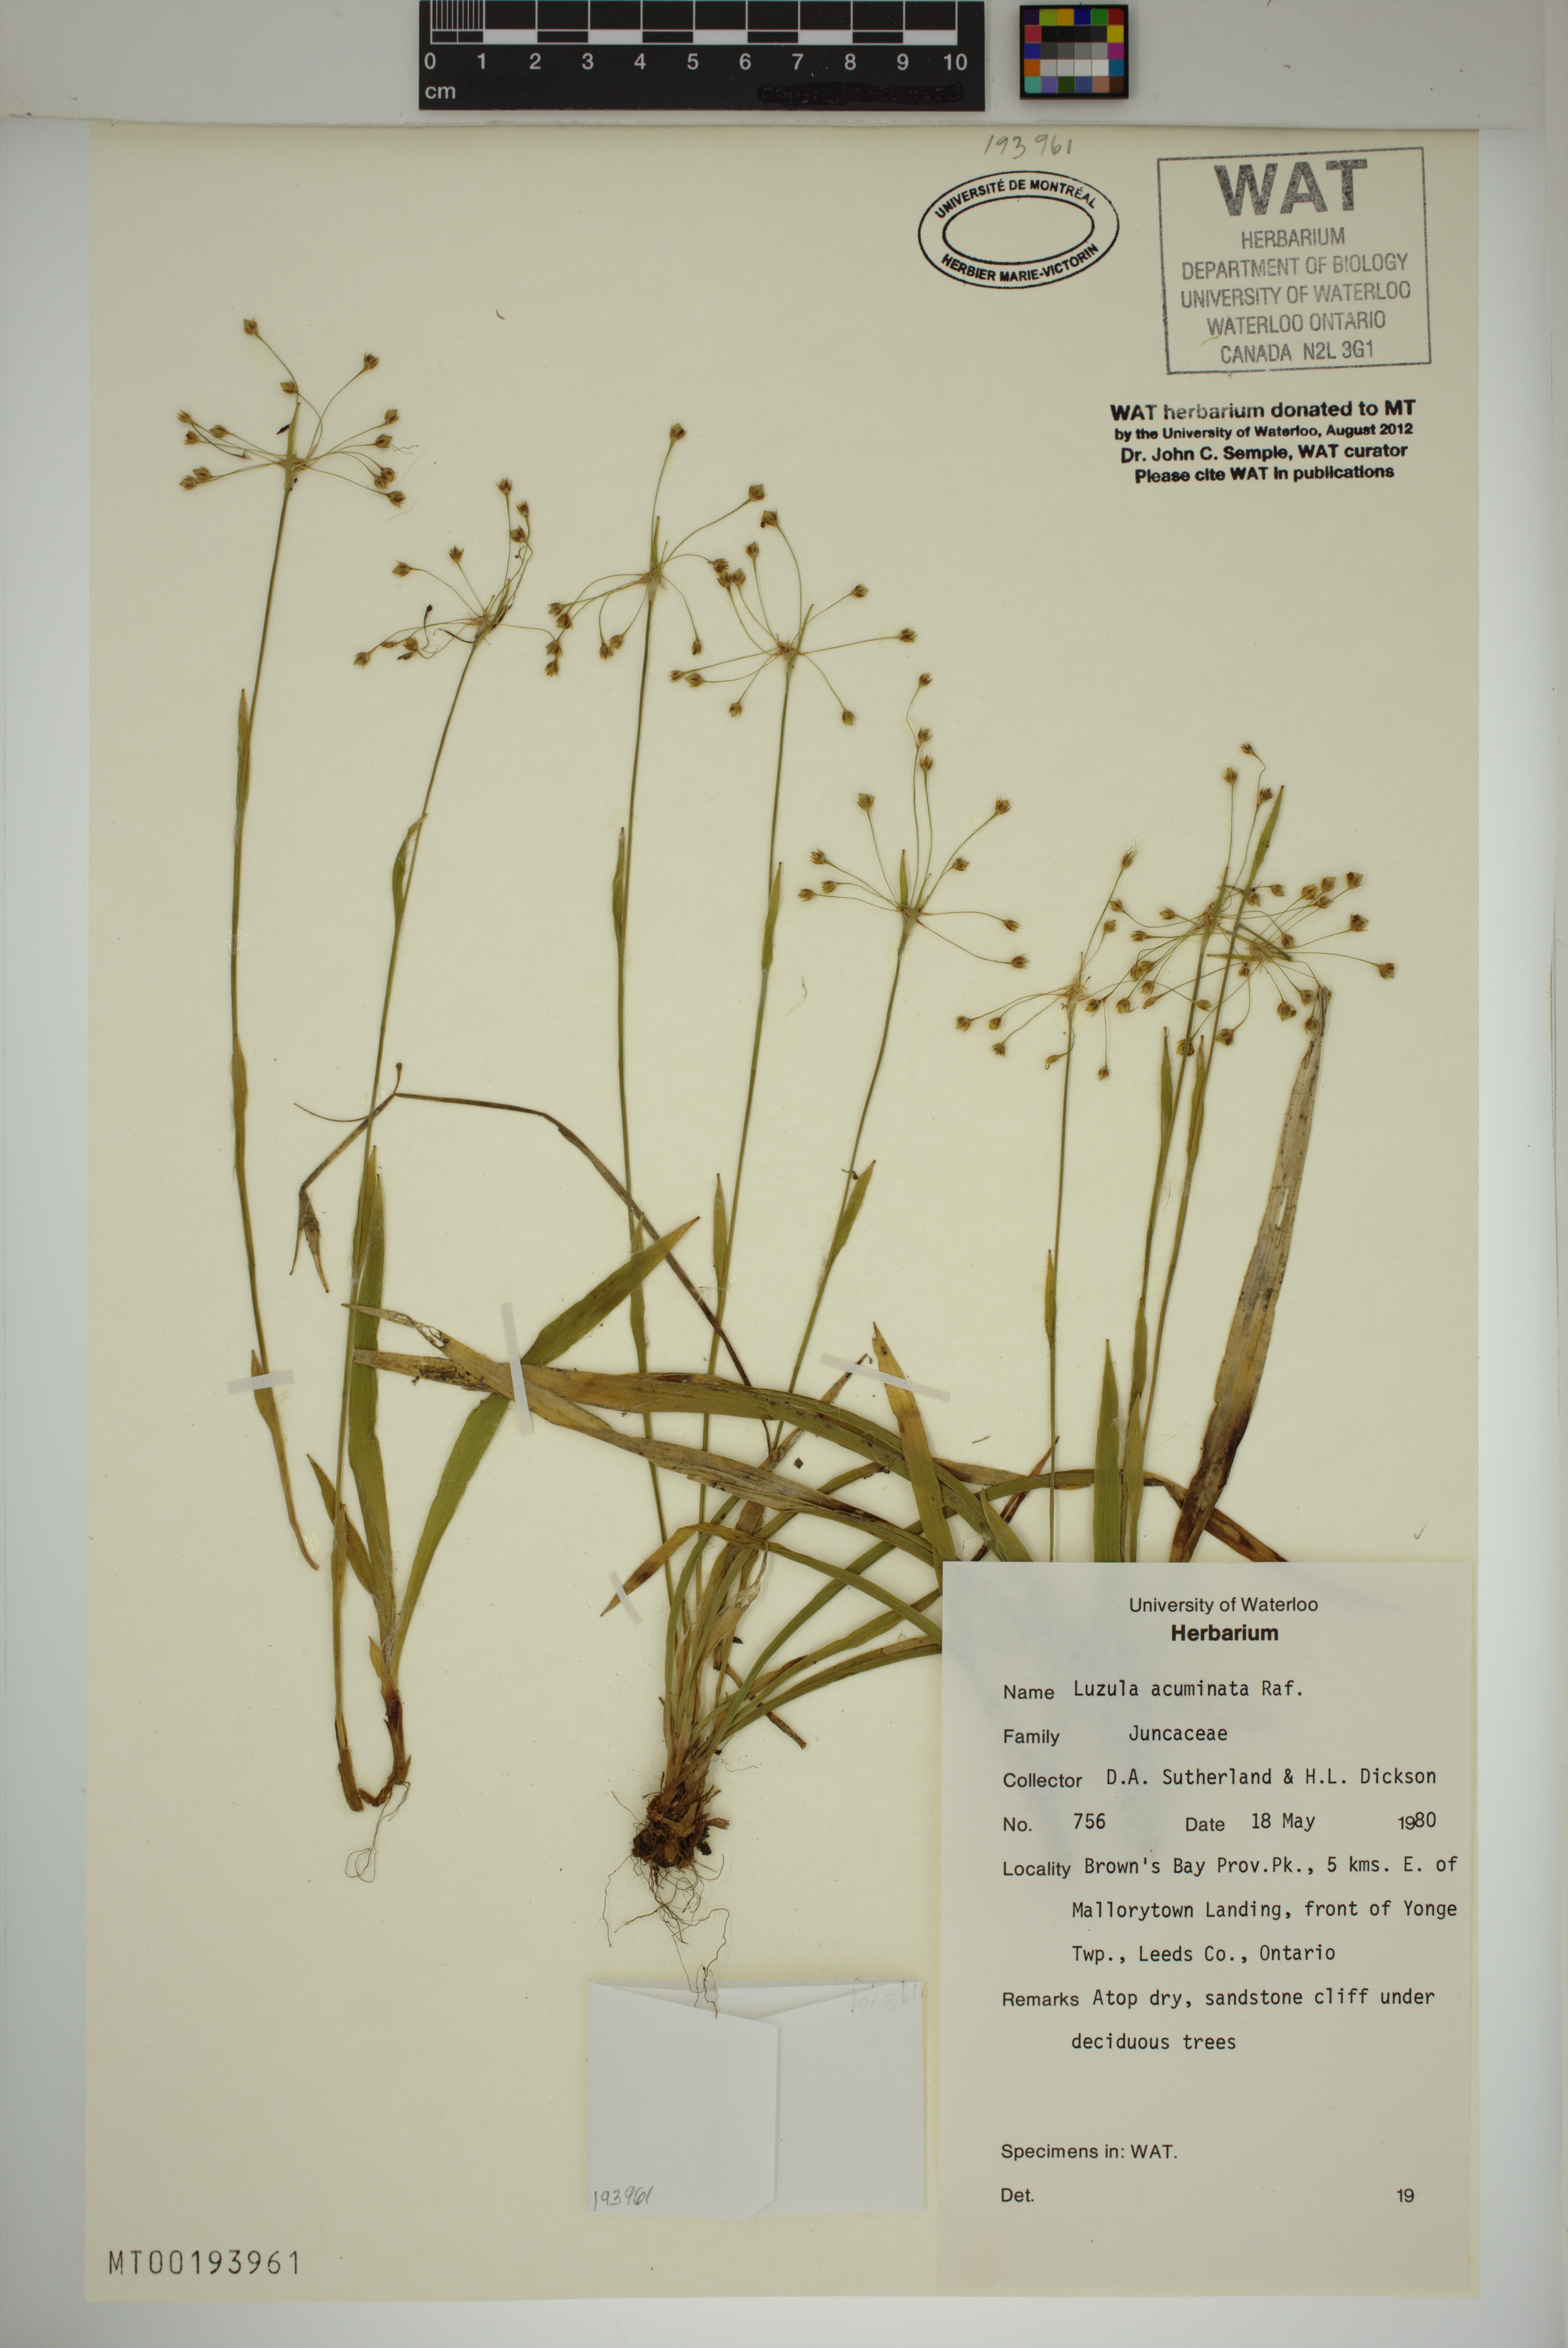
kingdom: Plantae
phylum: Tracheophyta
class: Liliopsida
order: Poales
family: Juncaceae
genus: Luzula
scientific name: Luzula acuminata
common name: Hairy woodrush
